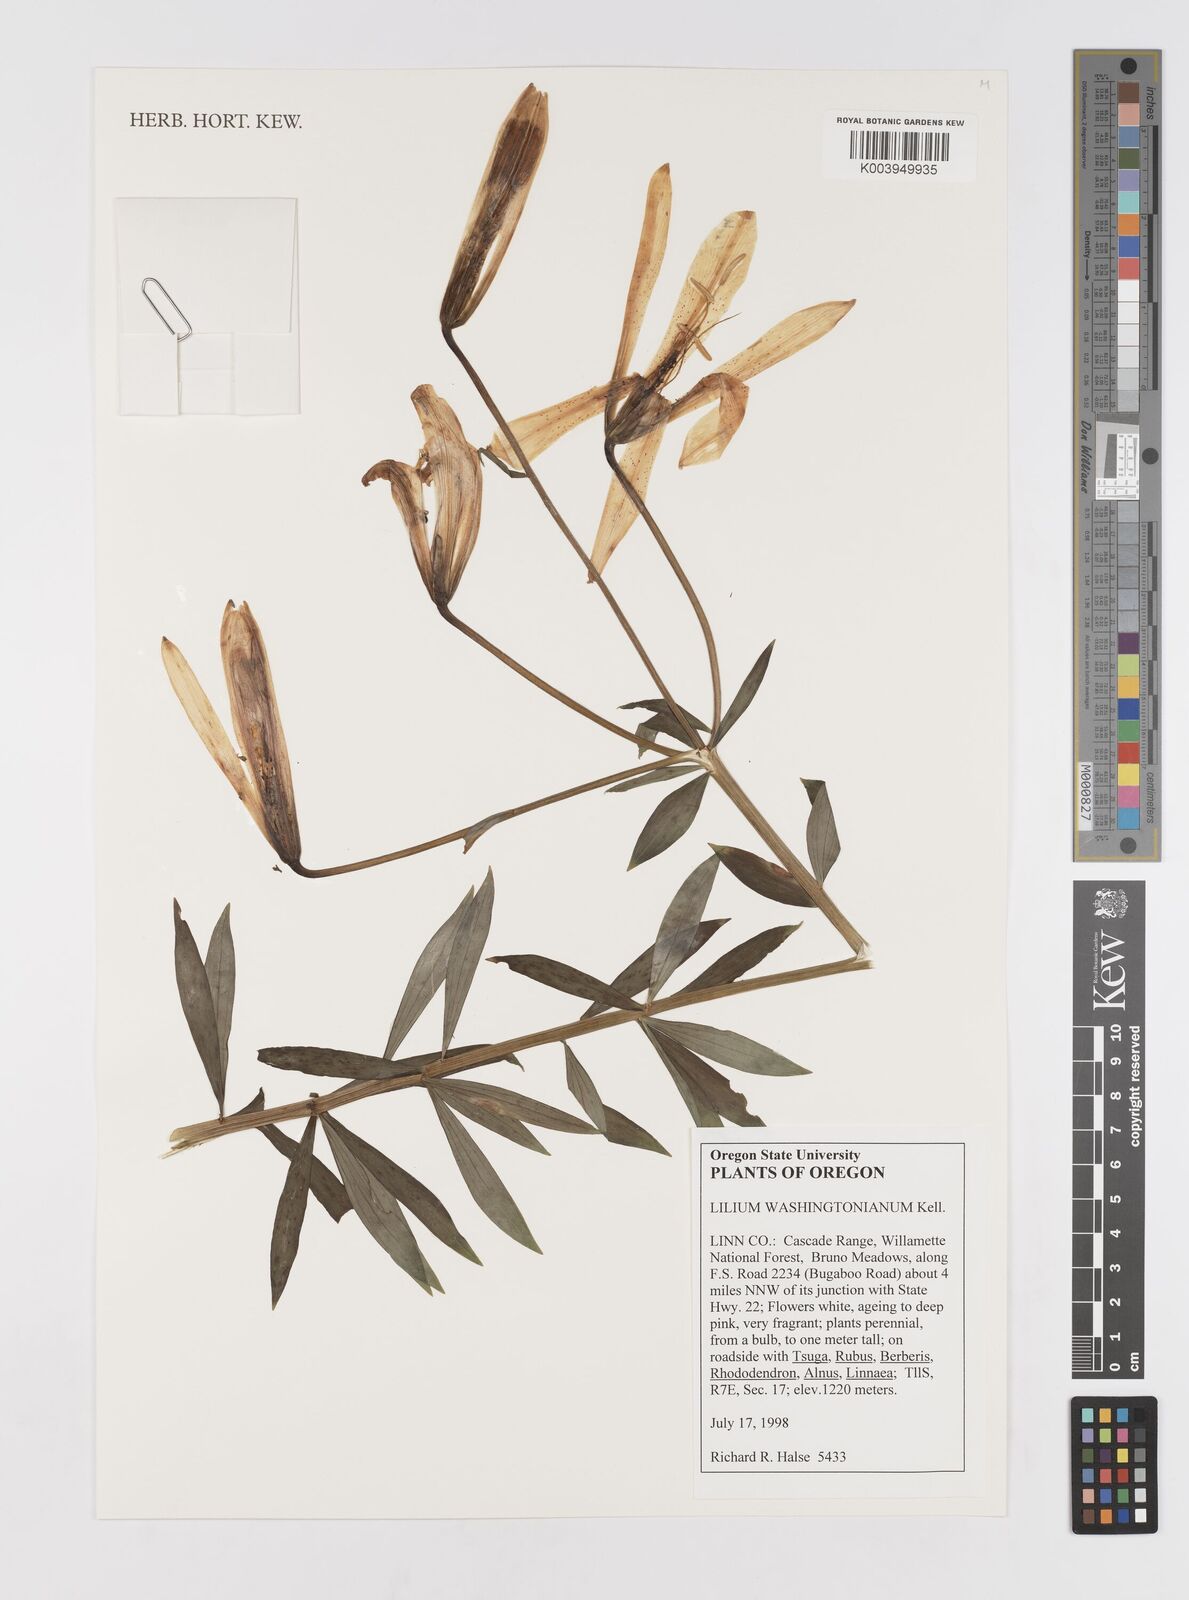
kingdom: Plantae
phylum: Tracheophyta
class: Liliopsida
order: Liliales
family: Liliaceae
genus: Lilium
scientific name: Lilium washingtonianum
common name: Washington lily
